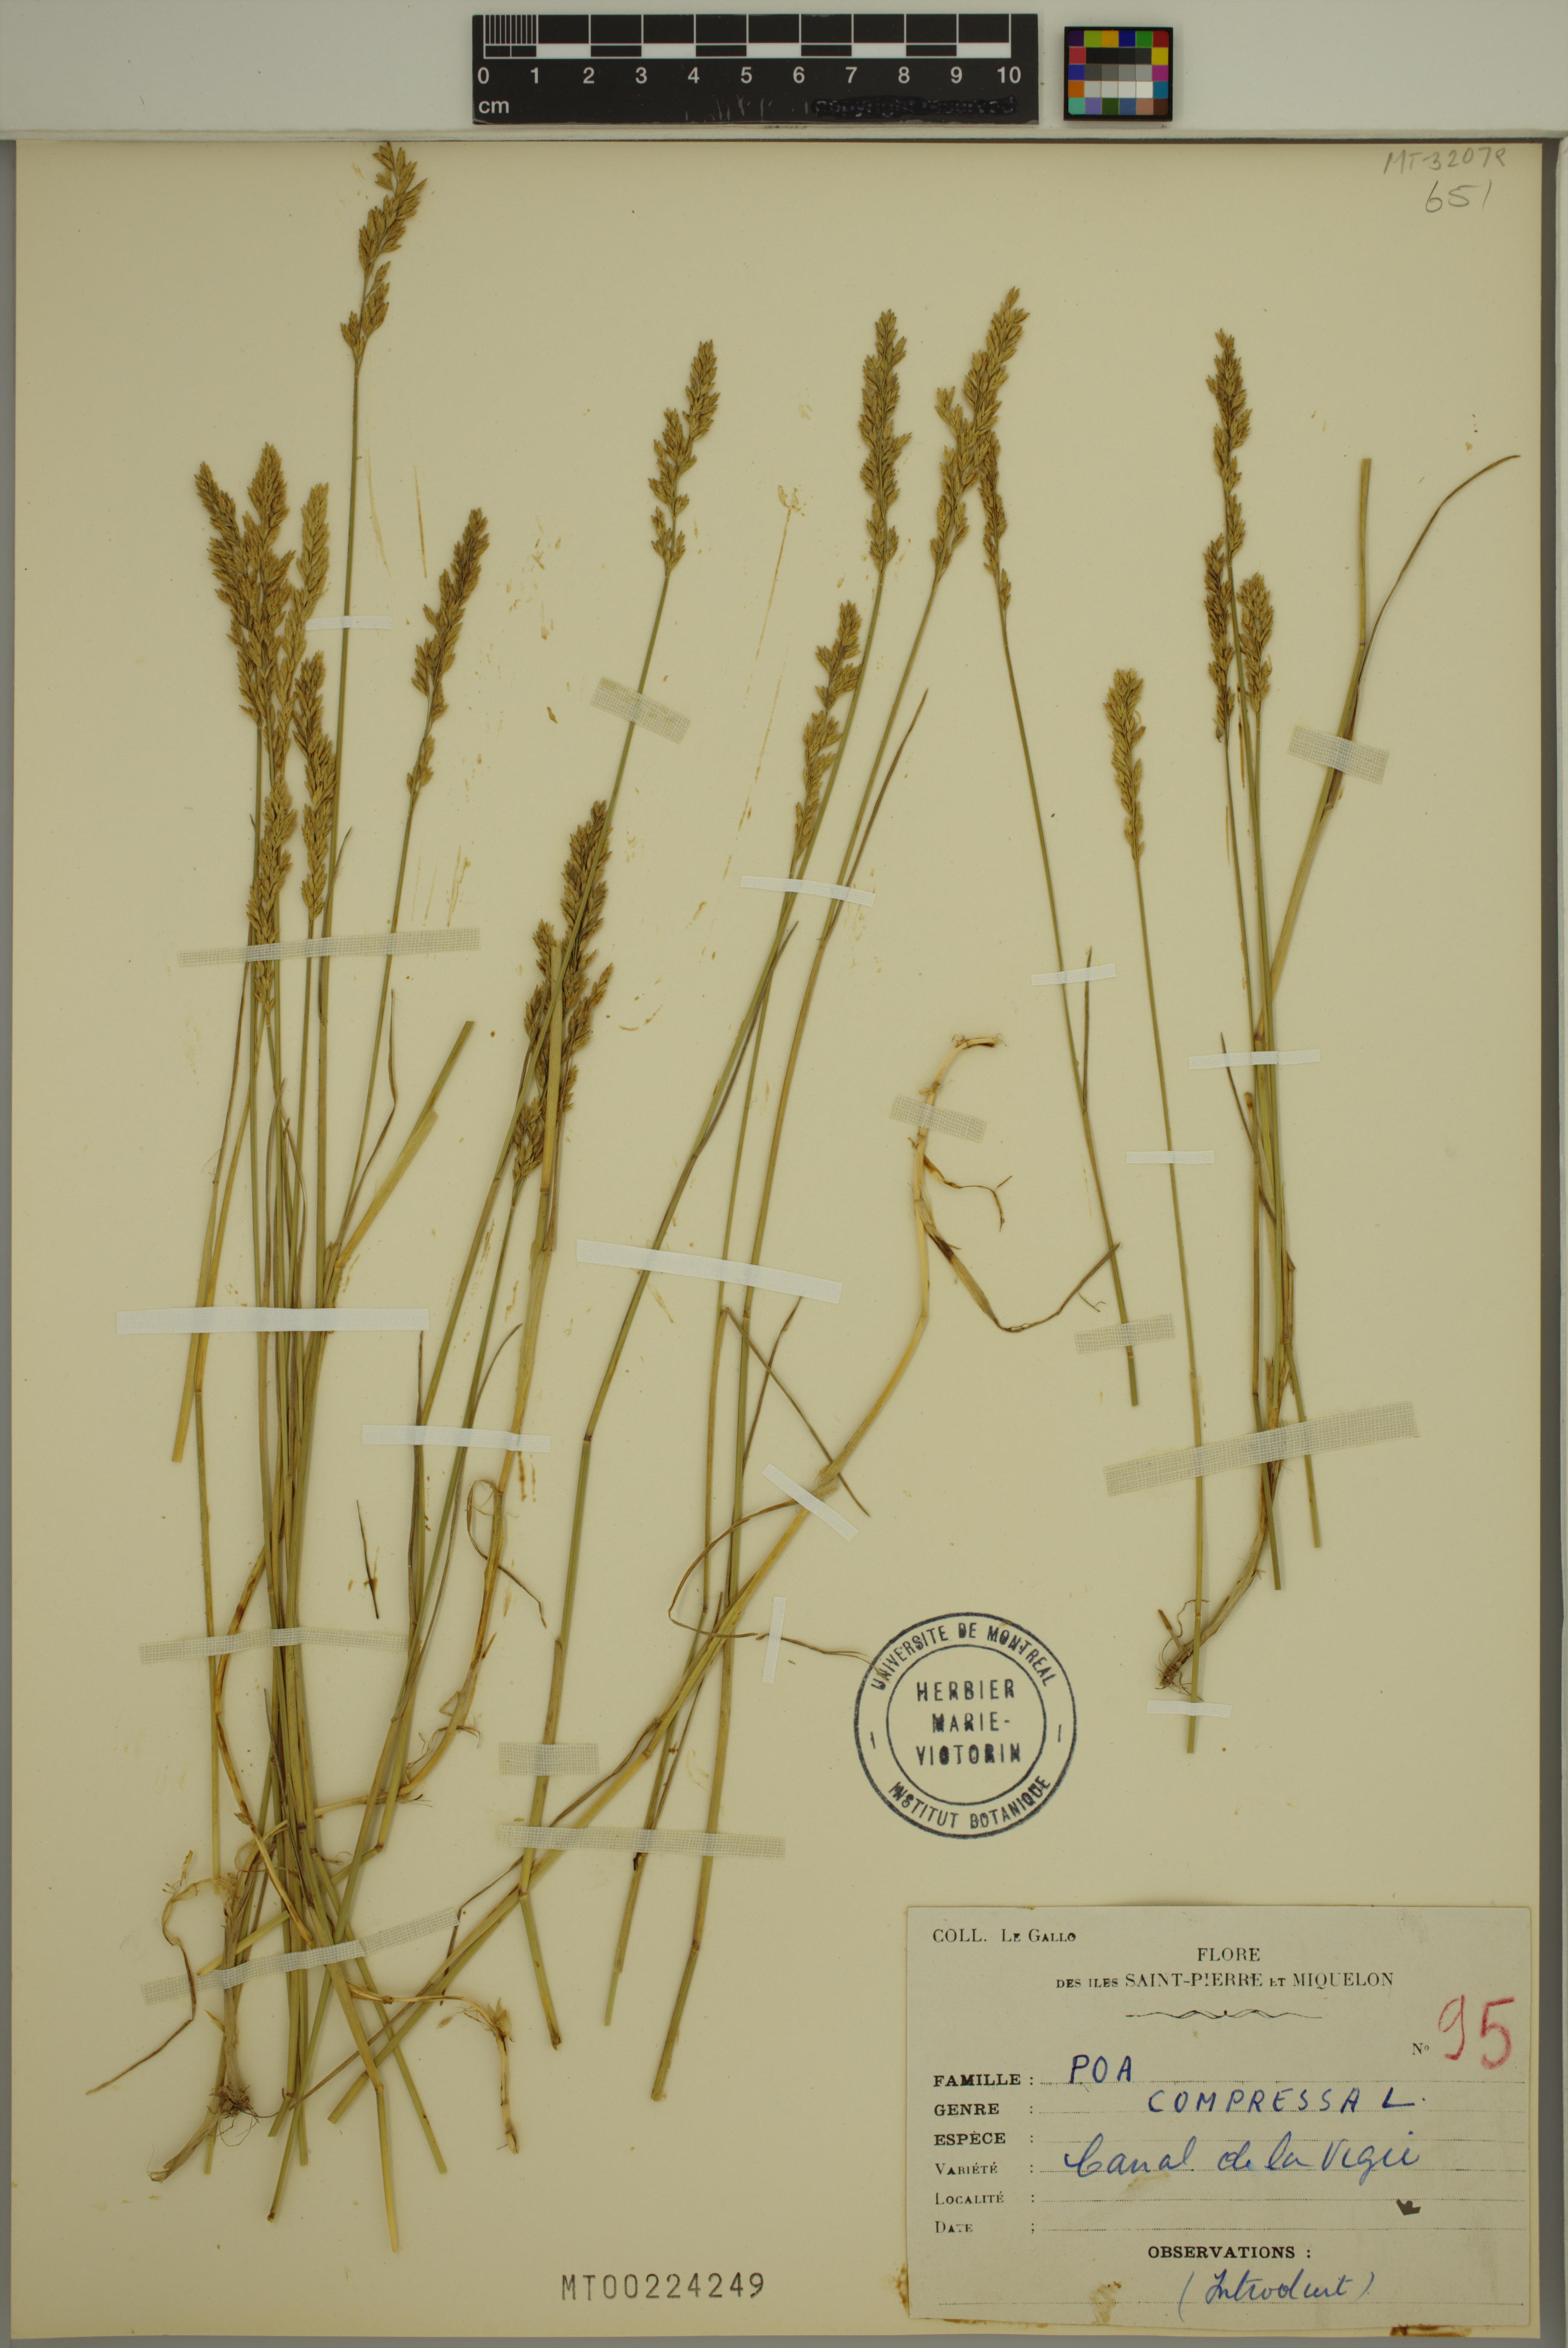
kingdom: Plantae
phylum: Tracheophyta
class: Liliopsida
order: Poales
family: Poaceae
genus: Poa
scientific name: Poa compressa
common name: Canada bluegrass
